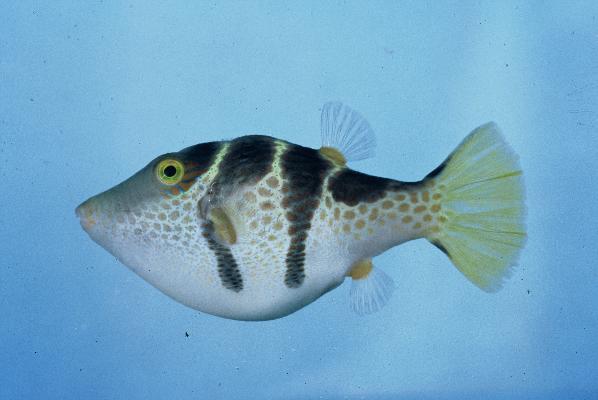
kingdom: Animalia
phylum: Chordata
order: Tetraodontiformes
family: Tetraodontidae
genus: Canthigaster
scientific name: Canthigaster valentini
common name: Banded toby
